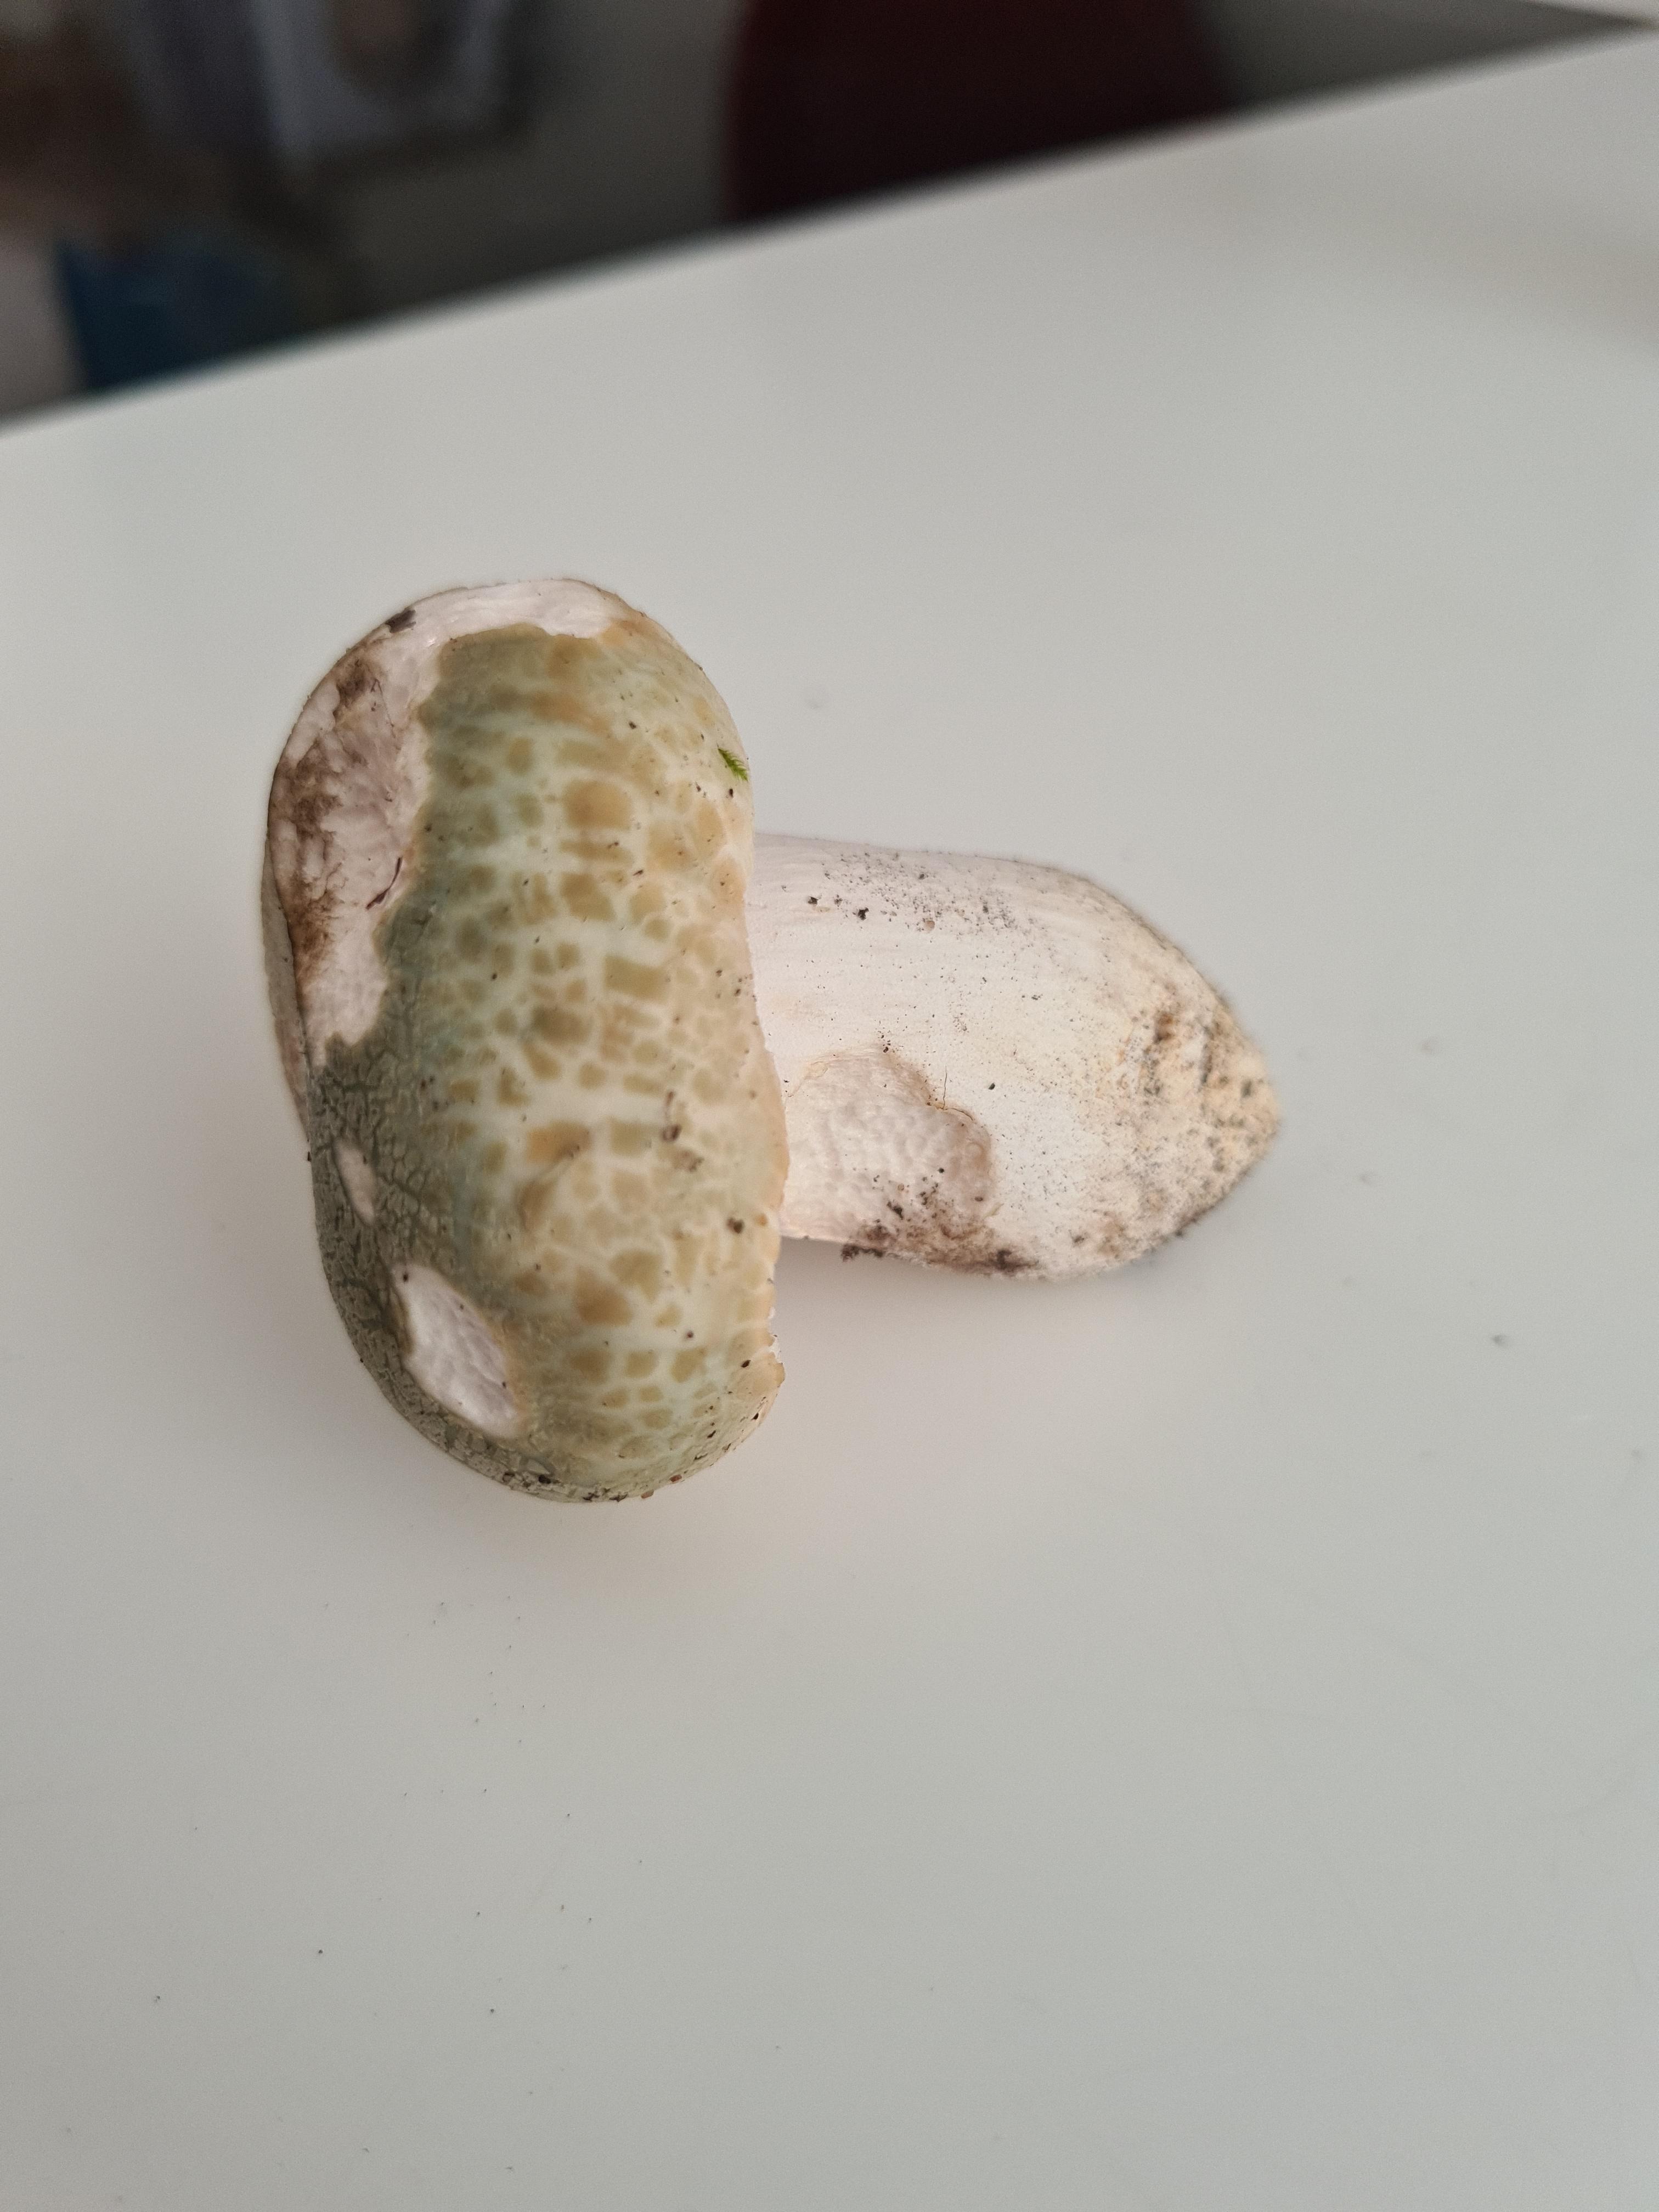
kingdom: Fungi
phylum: Basidiomycota
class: Agaricomycetes
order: Russulales
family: Russulaceae
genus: Russula
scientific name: Russula virescens
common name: spanskgrøn skørhat
